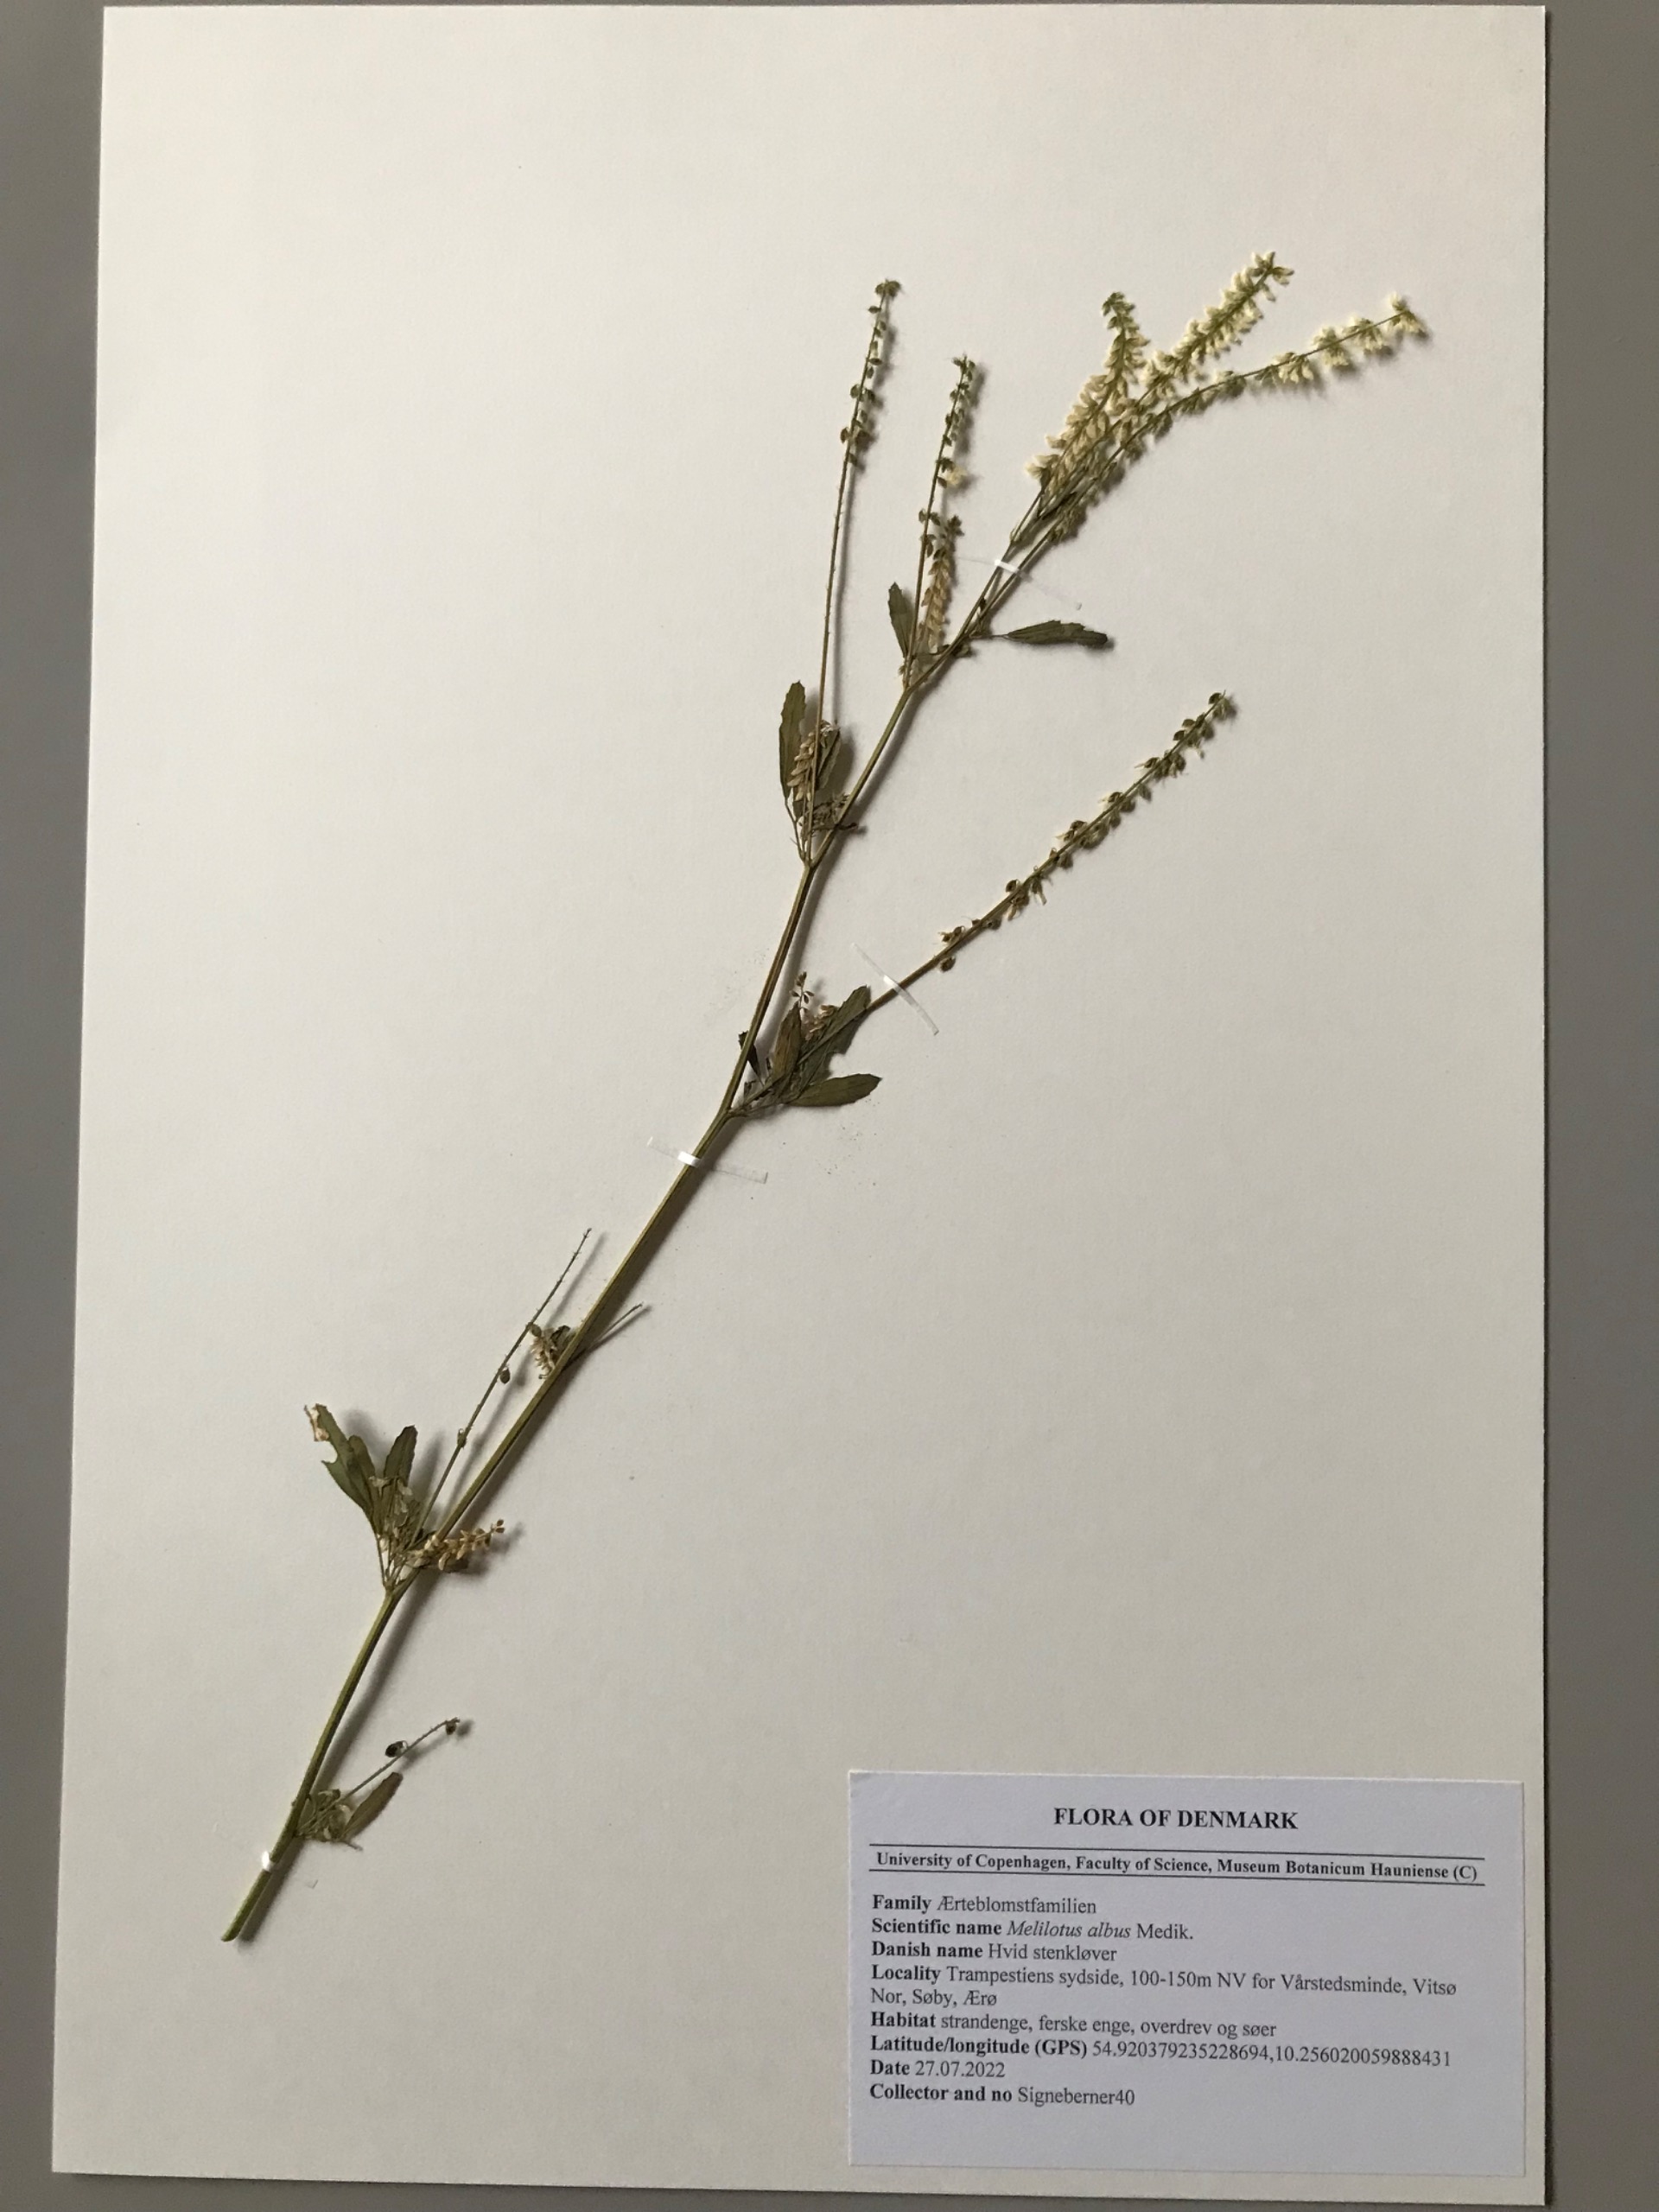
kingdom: Plantae
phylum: Tracheophyta
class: Magnoliopsida
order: Fabales
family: Fabaceae
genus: Melilotus
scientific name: Melilotus albus
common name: Hvid stenkløver
